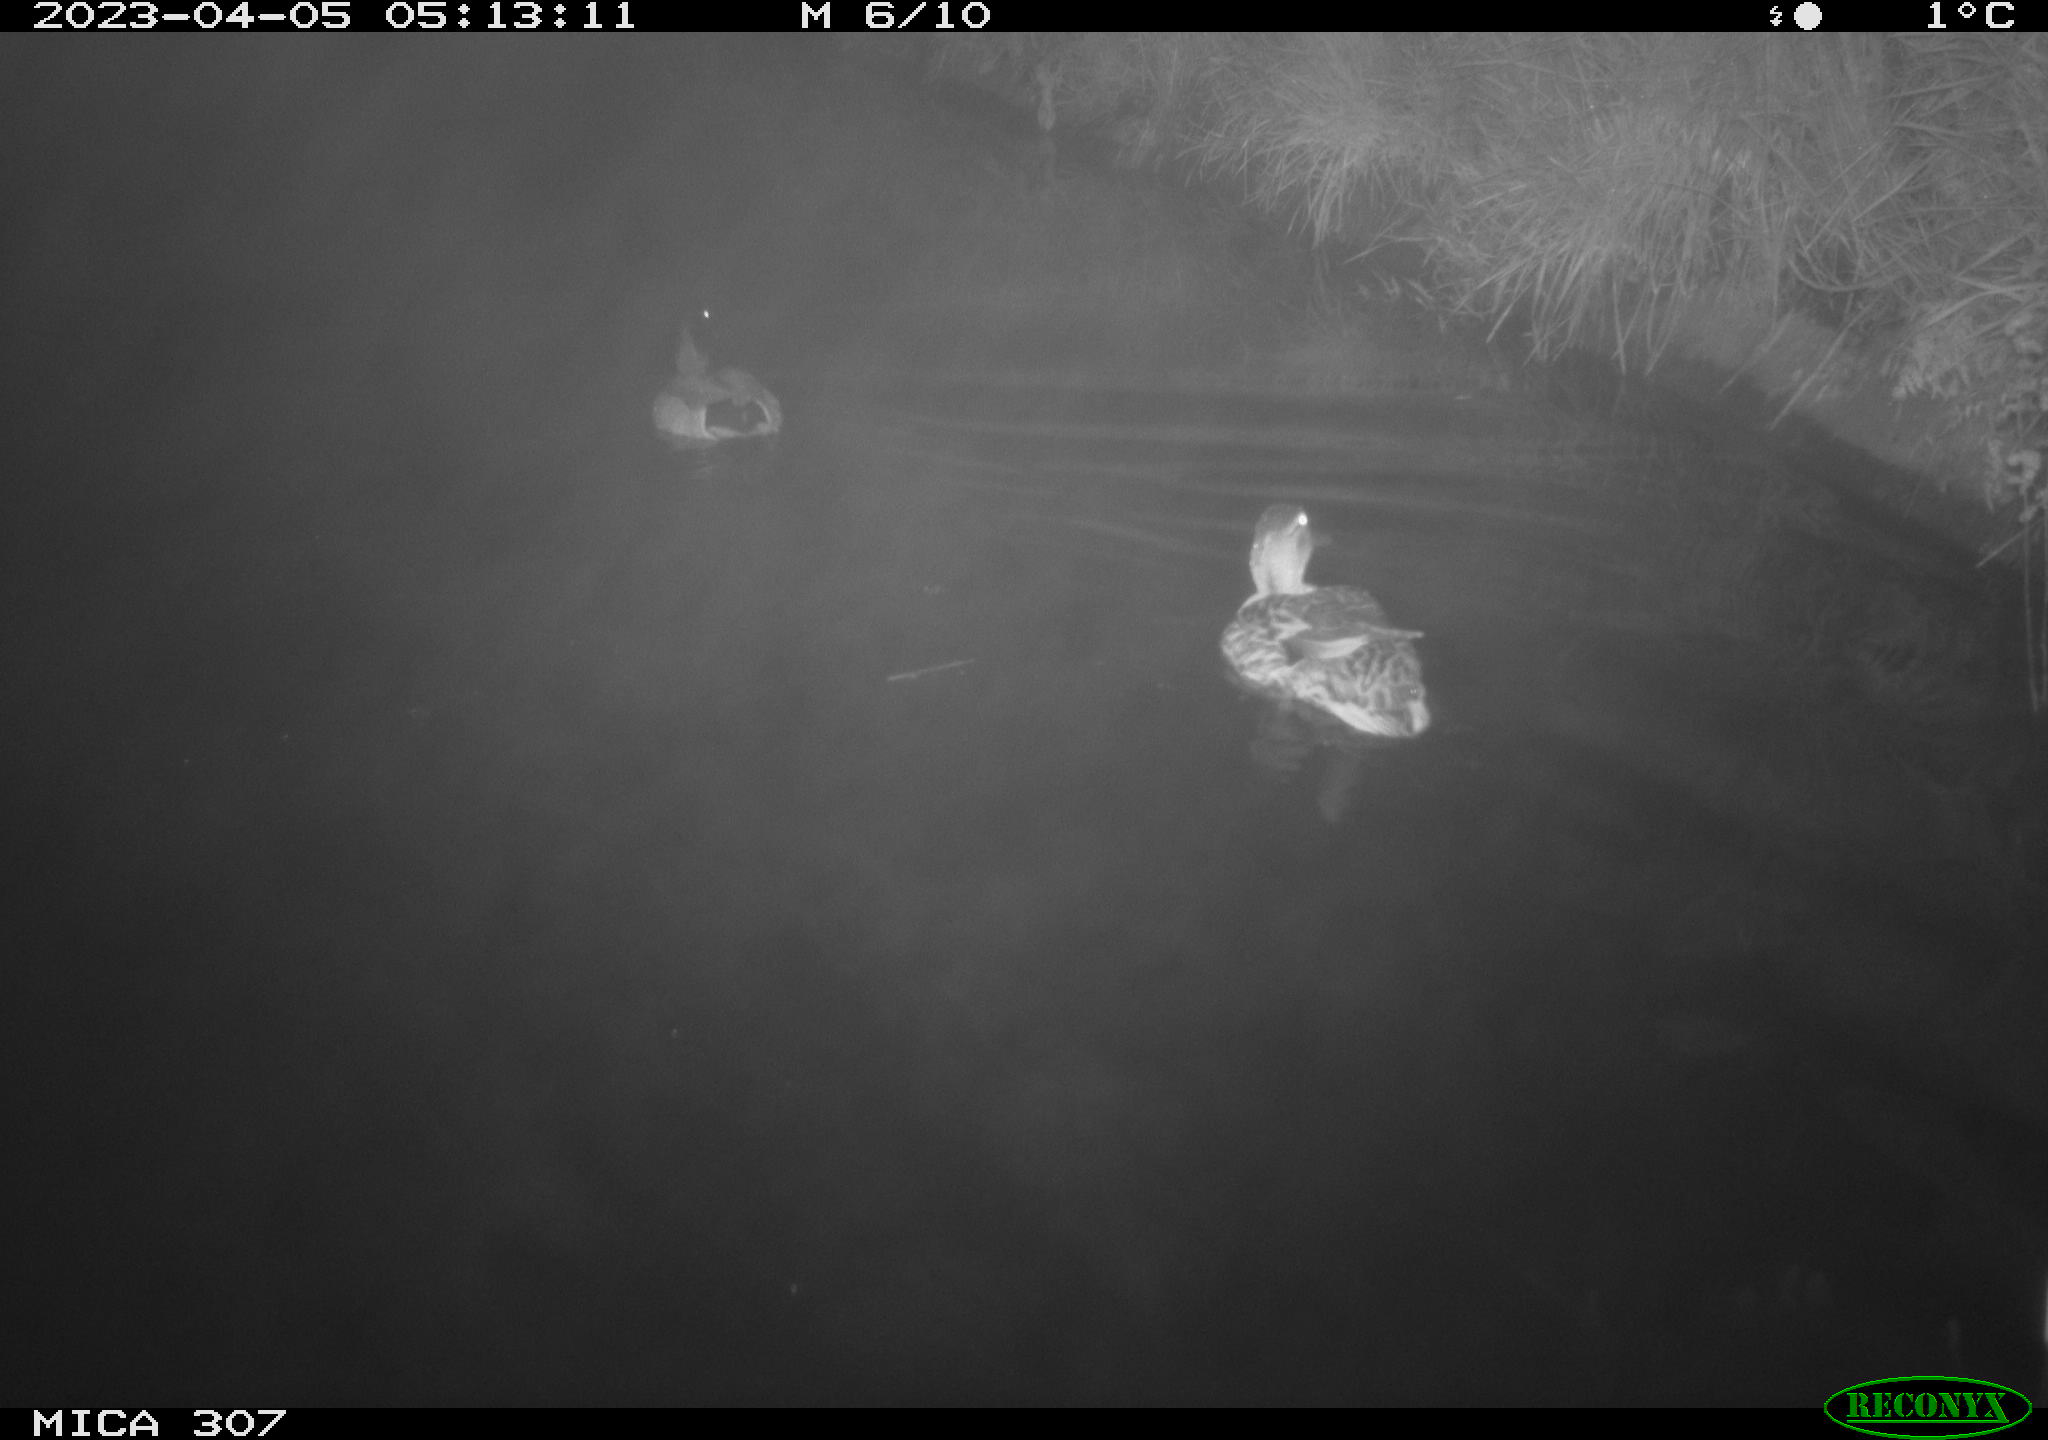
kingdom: Animalia
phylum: Chordata
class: Aves
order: Anseriformes
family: Anatidae
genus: Anas
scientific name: Anas
